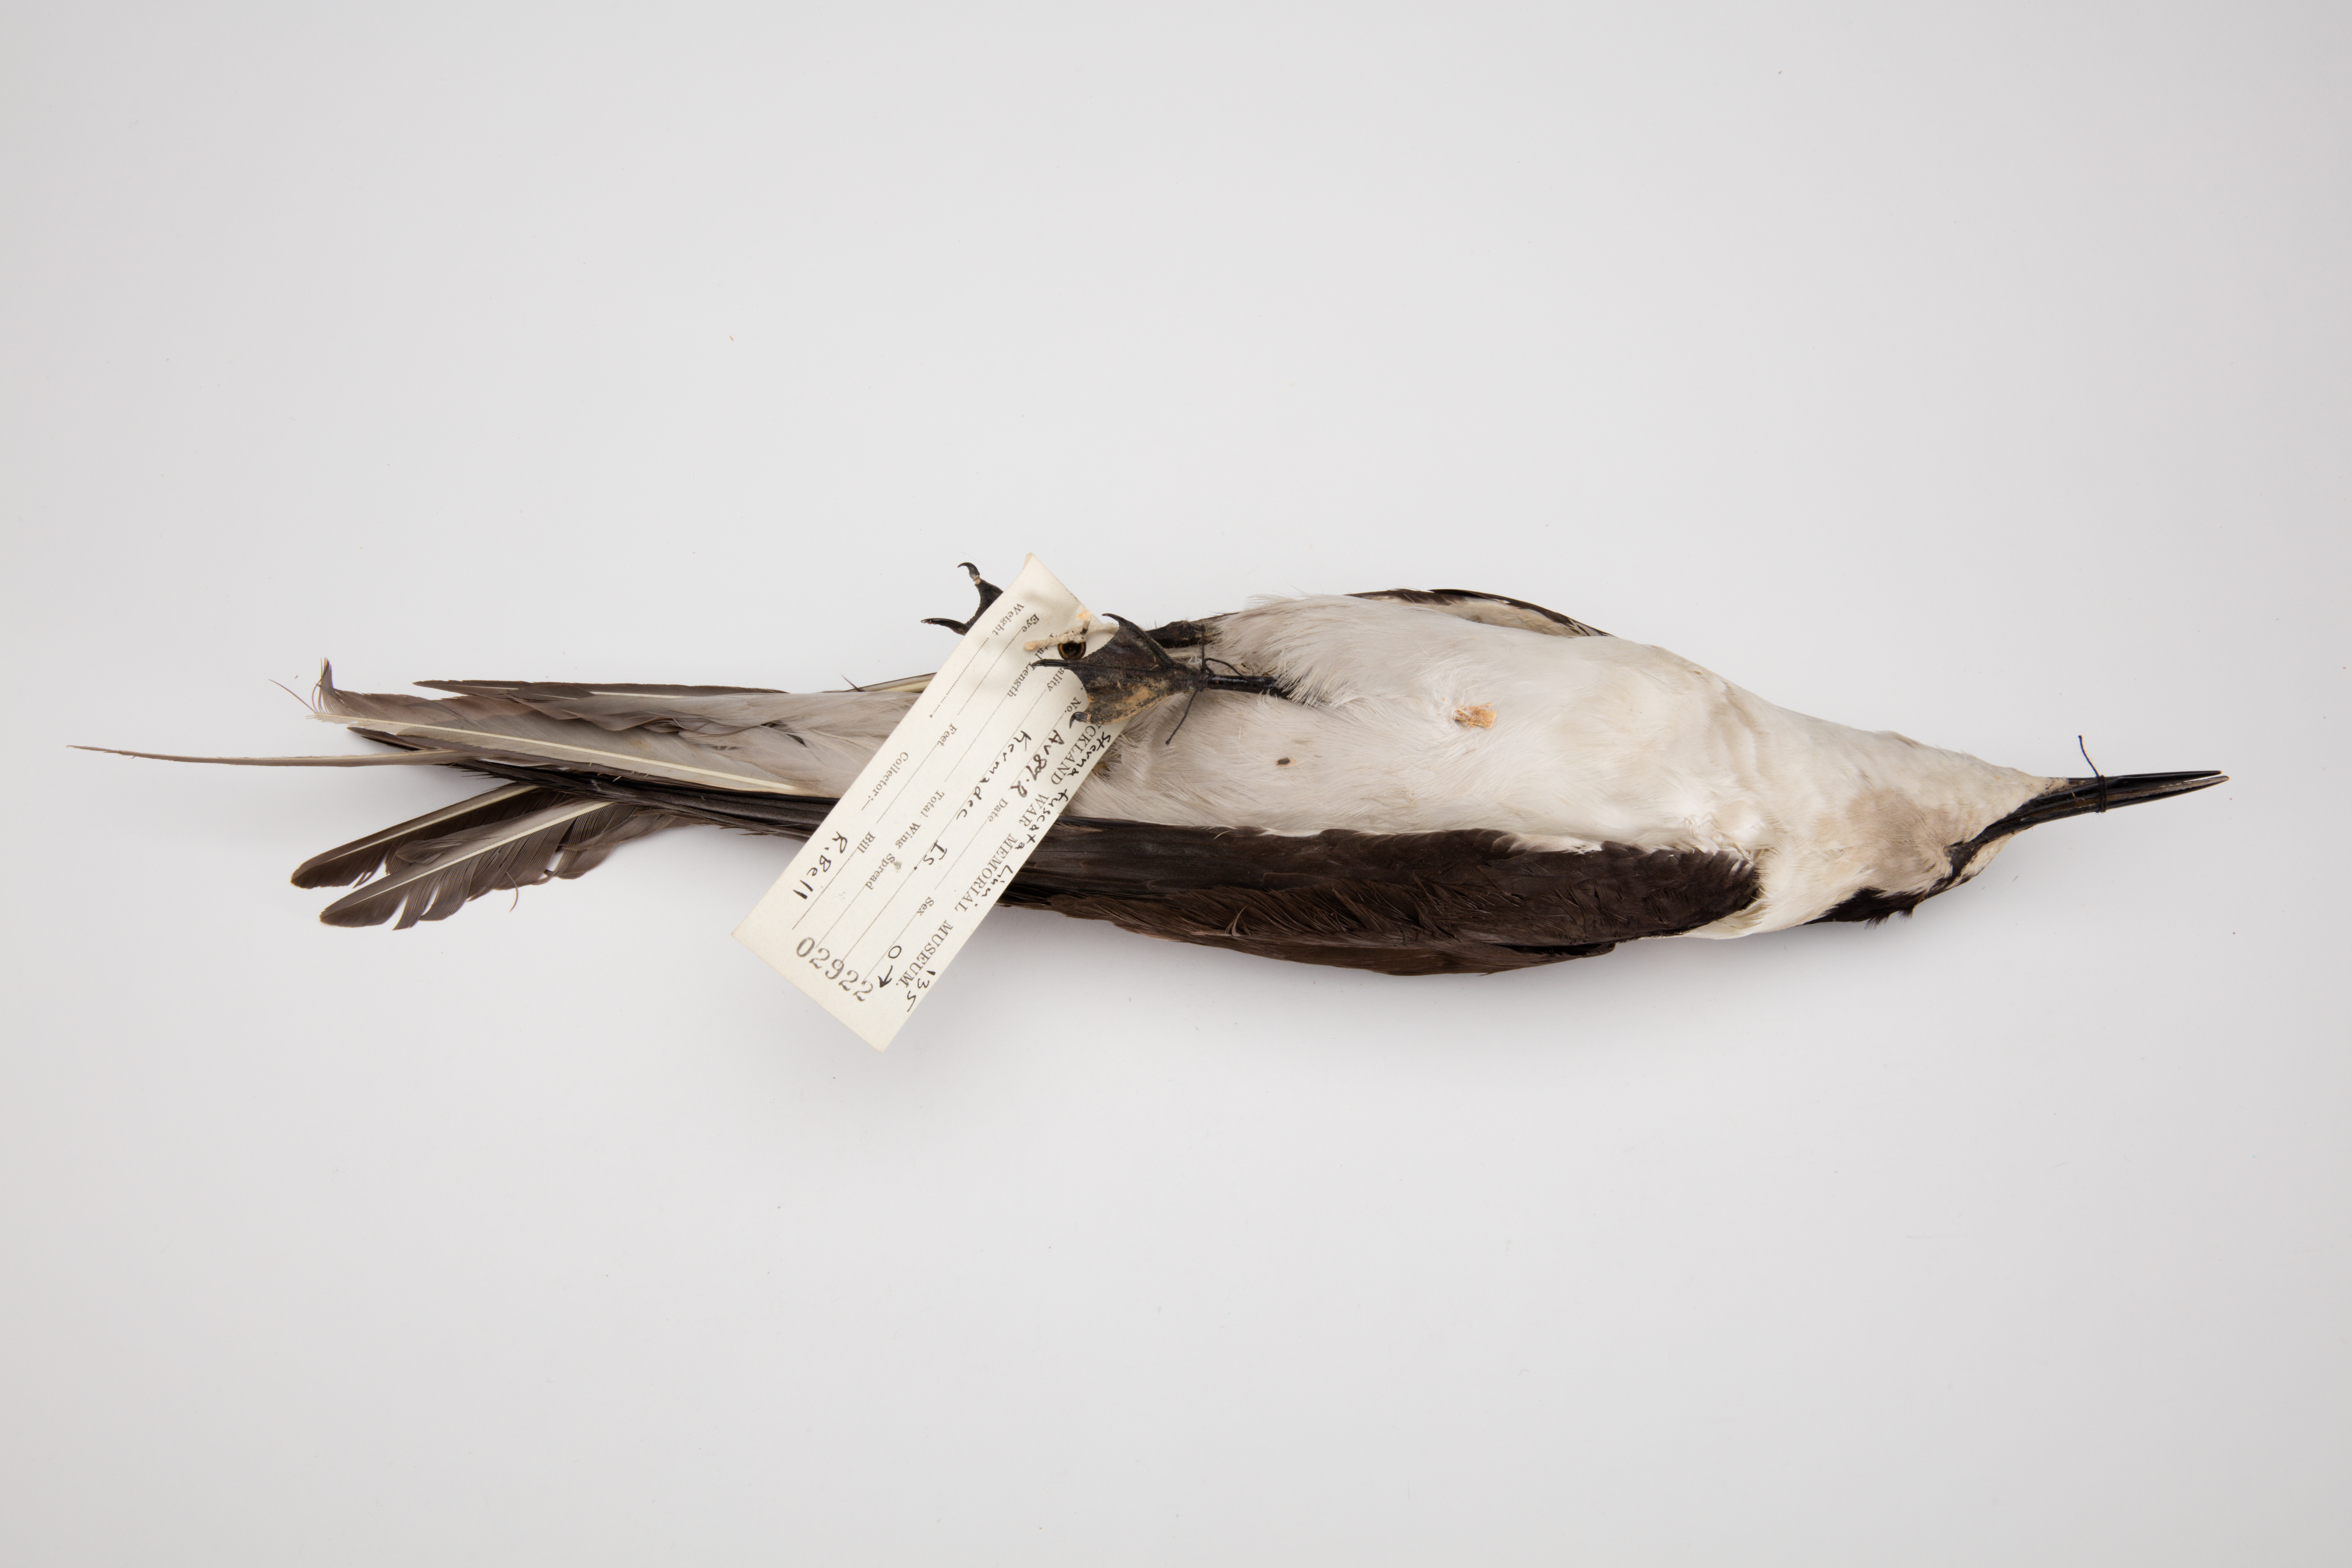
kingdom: Animalia
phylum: Chordata
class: Aves
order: Charadriiformes
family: Laridae
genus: Onychoprion
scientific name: Onychoprion fuscatus
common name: Sooty tern
